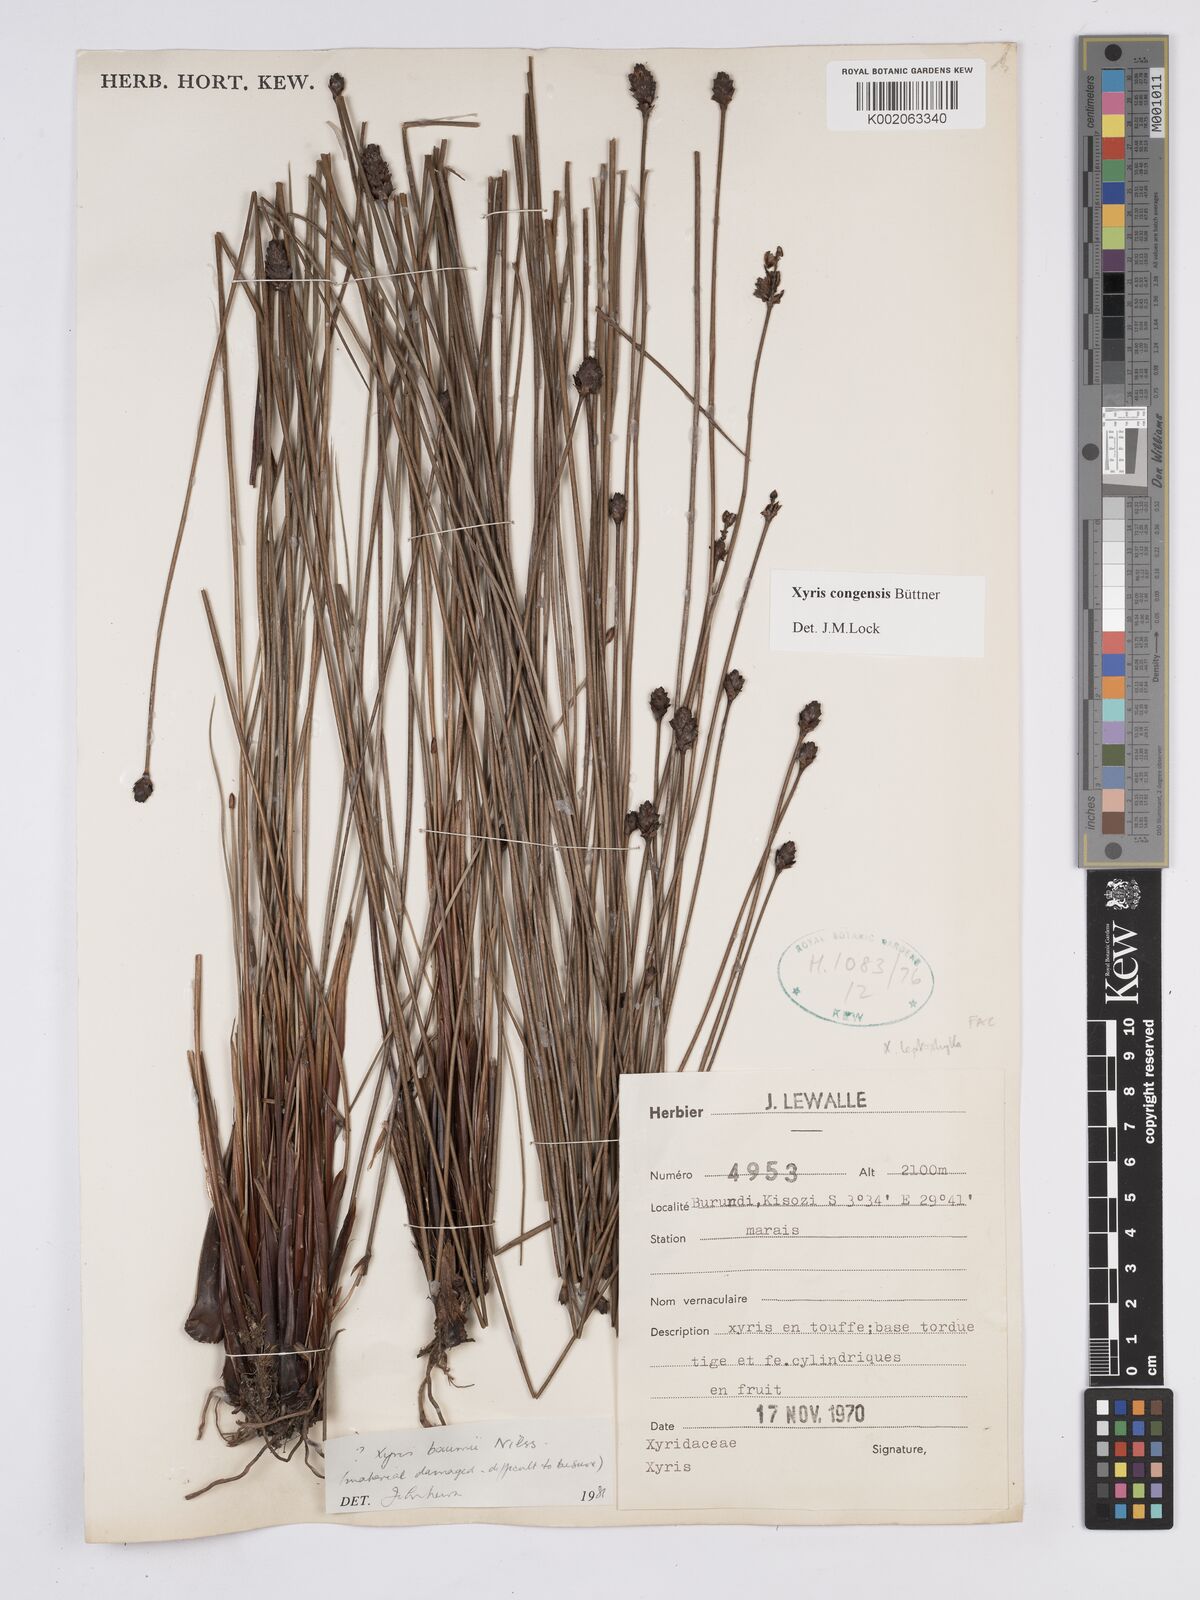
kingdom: Plantae
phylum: Tracheophyta
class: Liliopsida
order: Poales
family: Xyridaceae
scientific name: Xyridaceae
